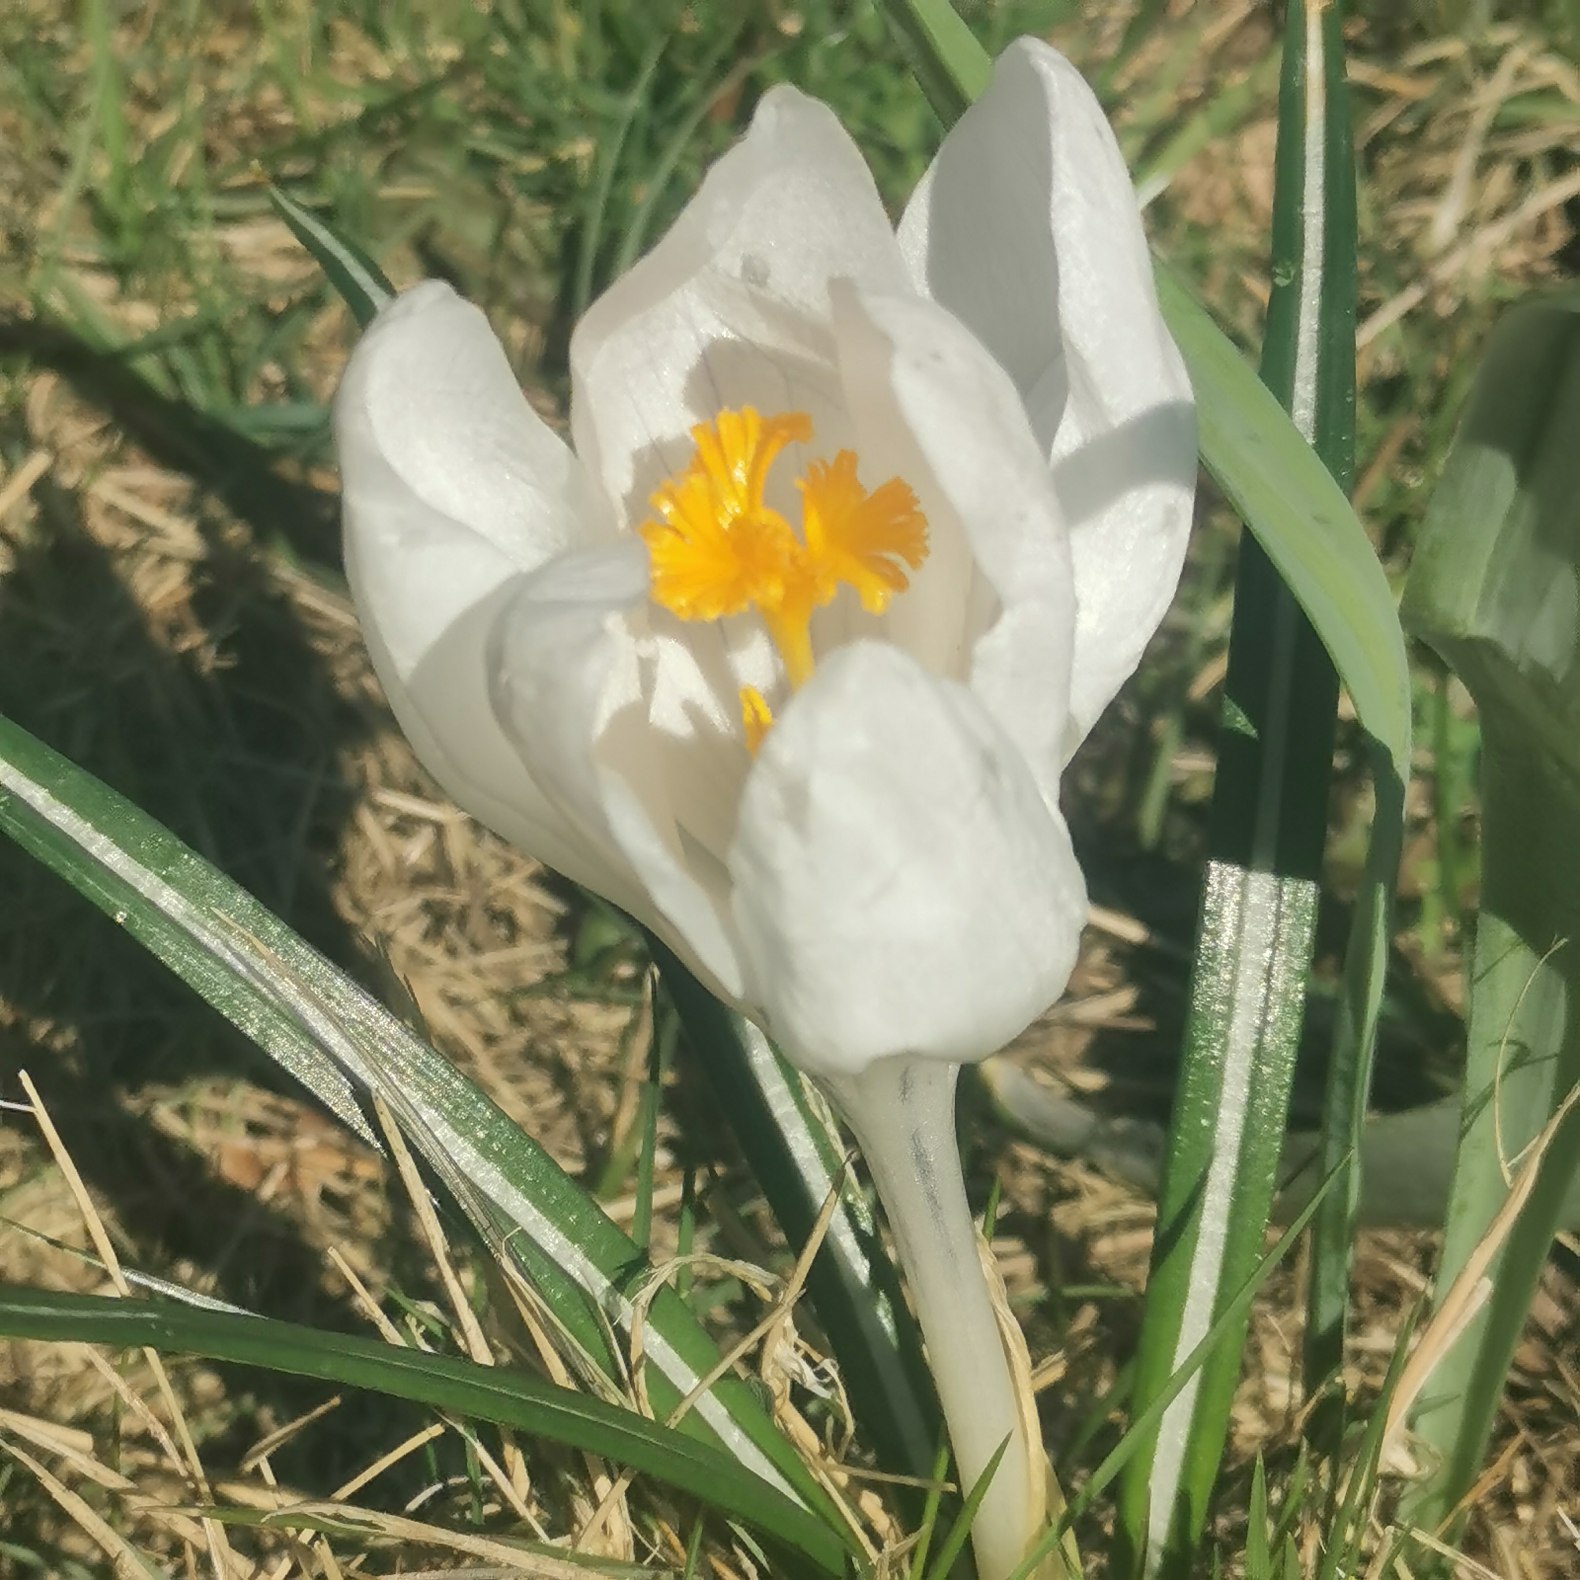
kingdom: Plantae
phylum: Tracheophyta
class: Liliopsida
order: Asparagales
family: Iridaceae
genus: Crocus
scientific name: Crocus vernus
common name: Vår-krokus
